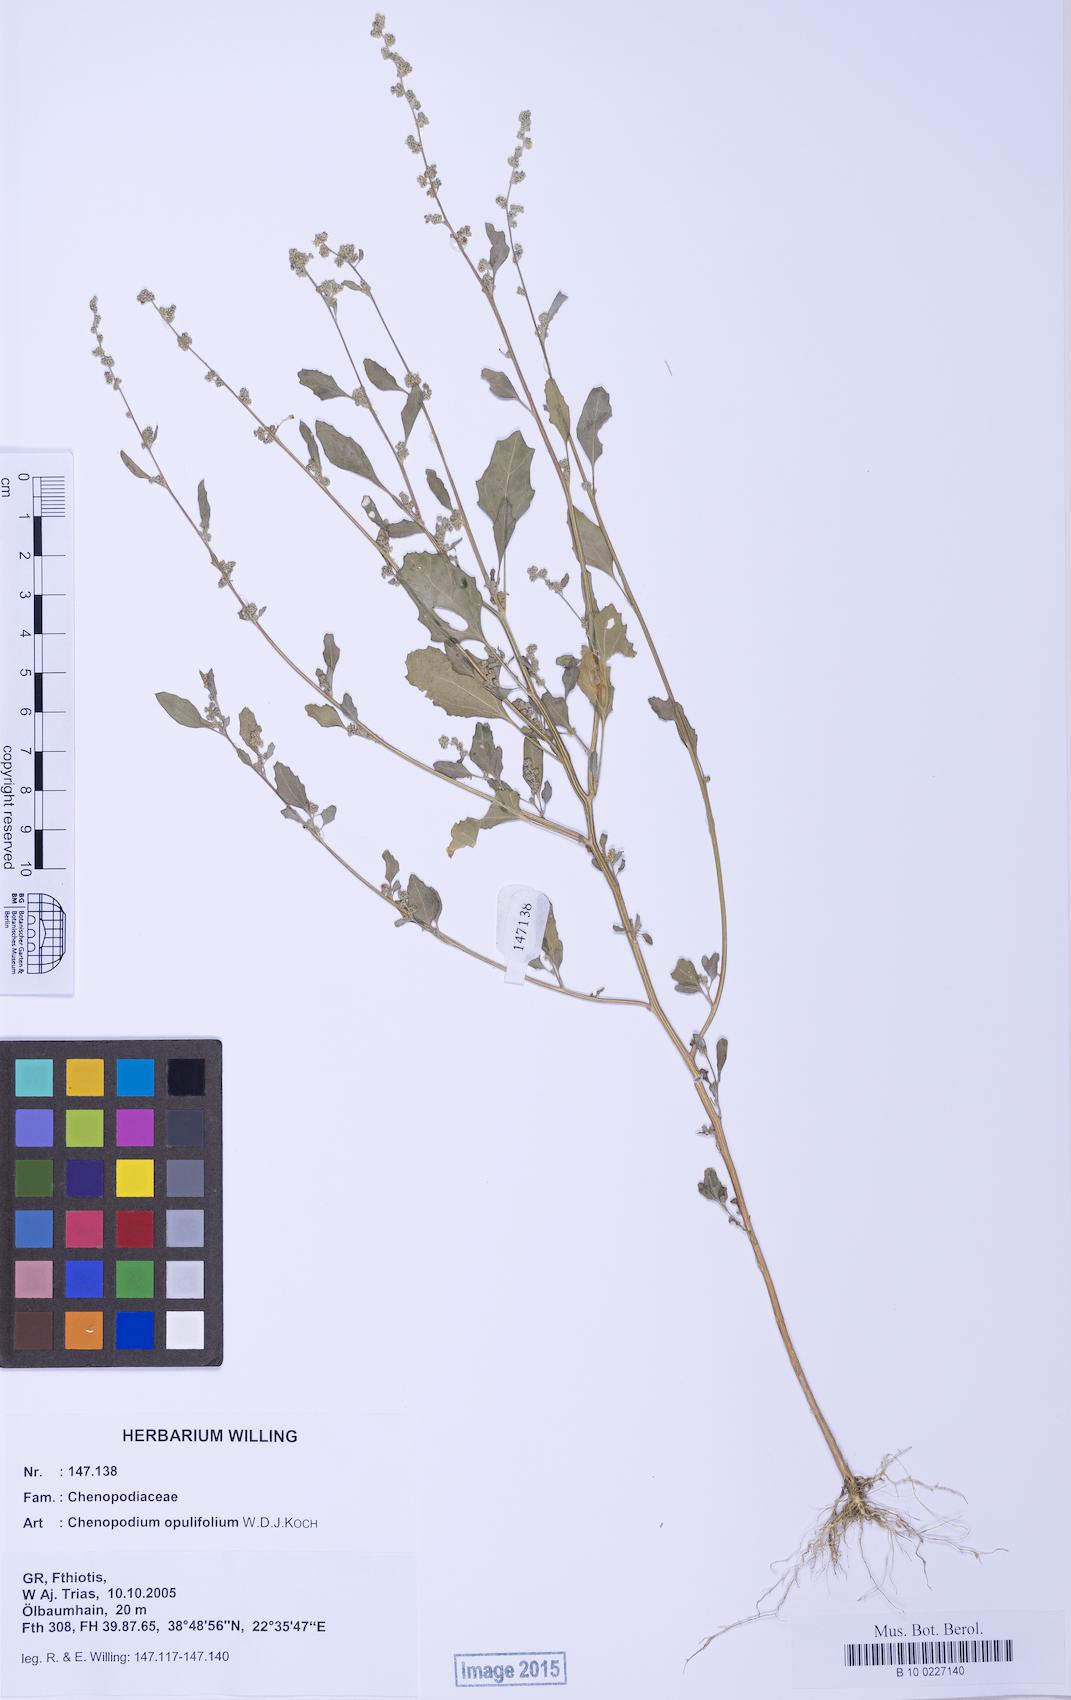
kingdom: Plantae
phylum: Tracheophyta
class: Magnoliopsida
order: Caryophyllales
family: Amaranthaceae
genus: Chenopodium
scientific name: Chenopodium album
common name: Fat-hen
